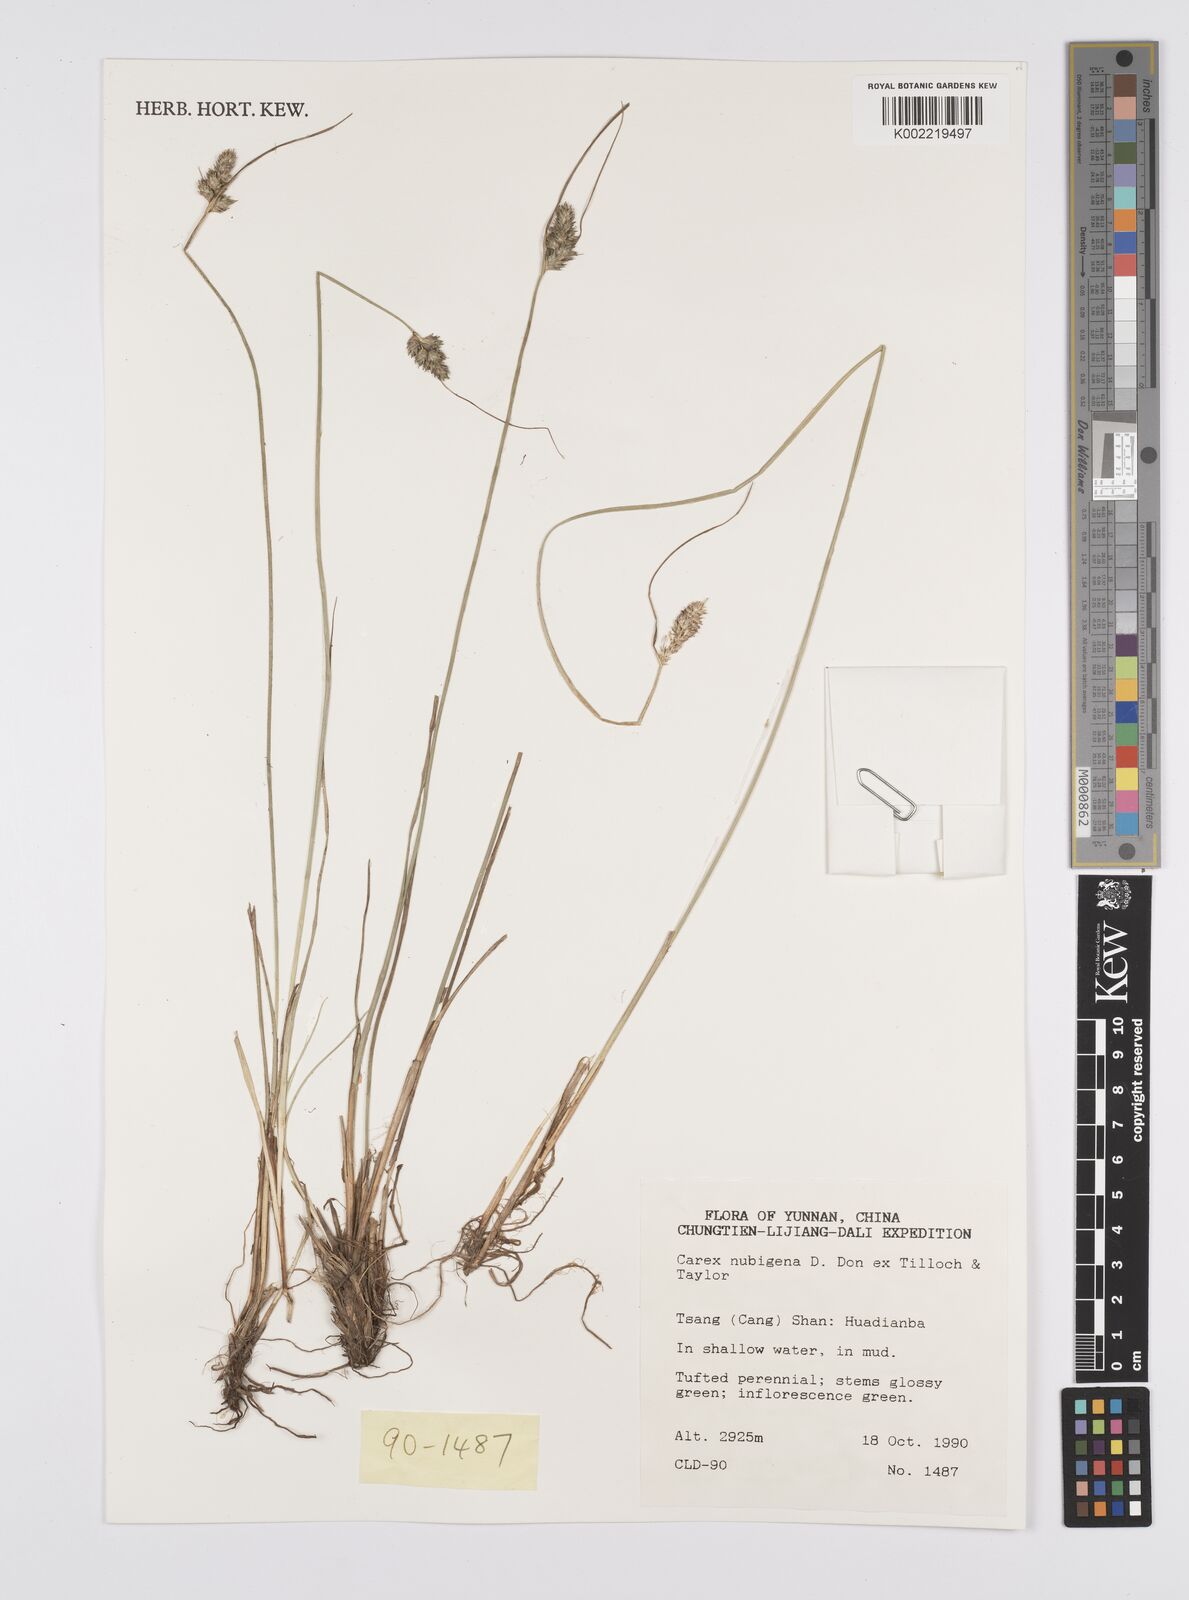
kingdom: Plantae
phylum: Tracheophyta
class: Liliopsida
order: Poales
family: Cyperaceae
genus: Carex
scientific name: Carex nubigena
